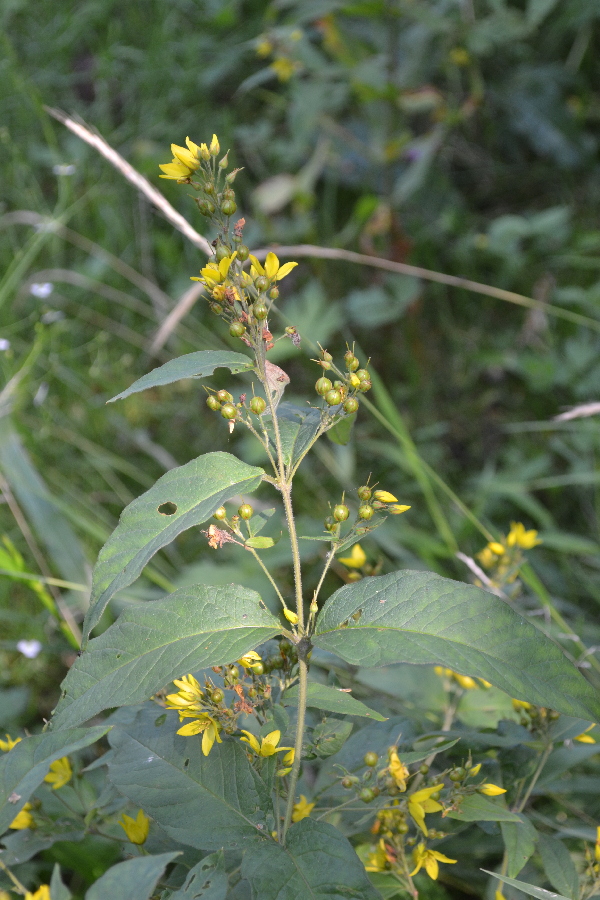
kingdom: Plantae
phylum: Tracheophyta
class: Magnoliopsida
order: Ericales
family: Primulaceae
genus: Lysimachia
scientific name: Lysimachia vulgaris
